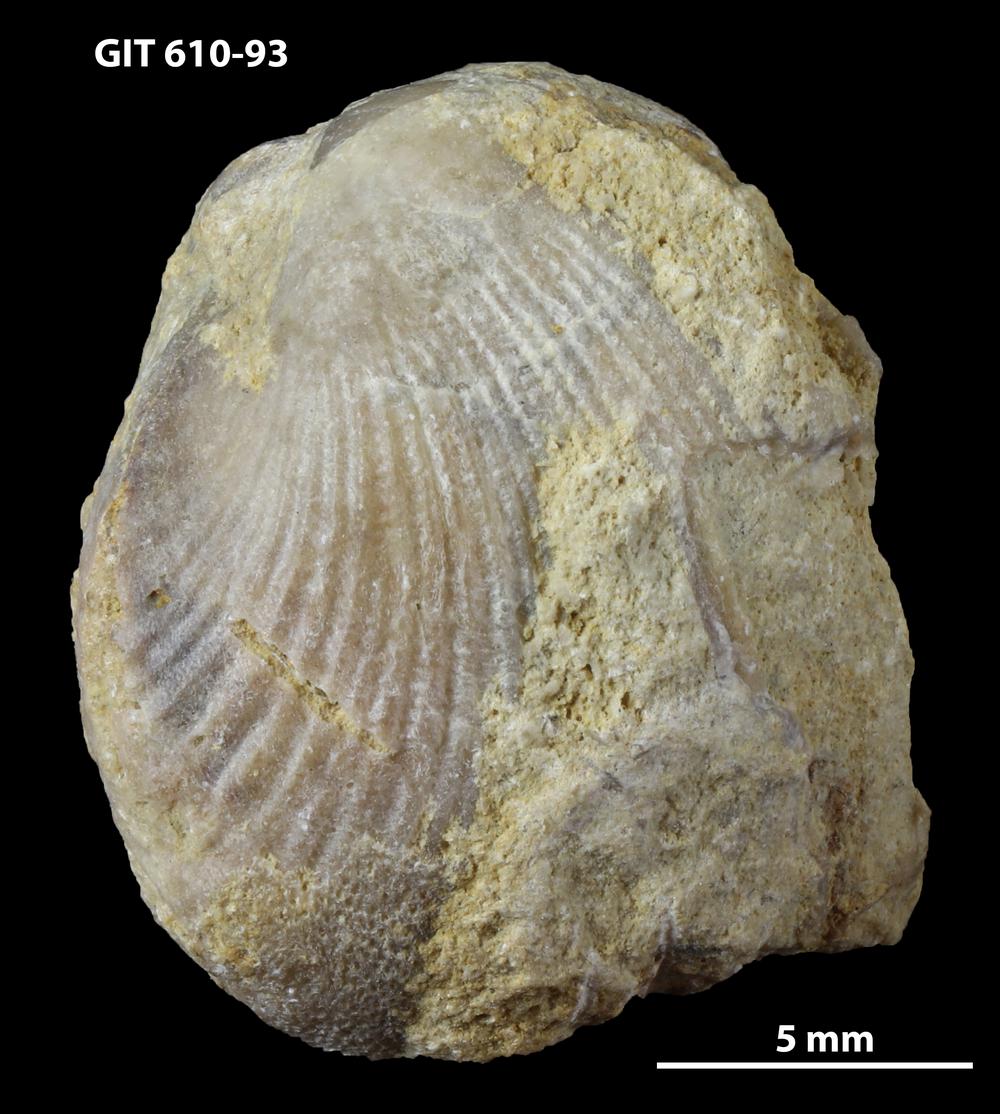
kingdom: Animalia
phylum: Brachiopoda
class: Rhynchonellata
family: Triplesiidae
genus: Cliftonia
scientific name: Cliftonia
